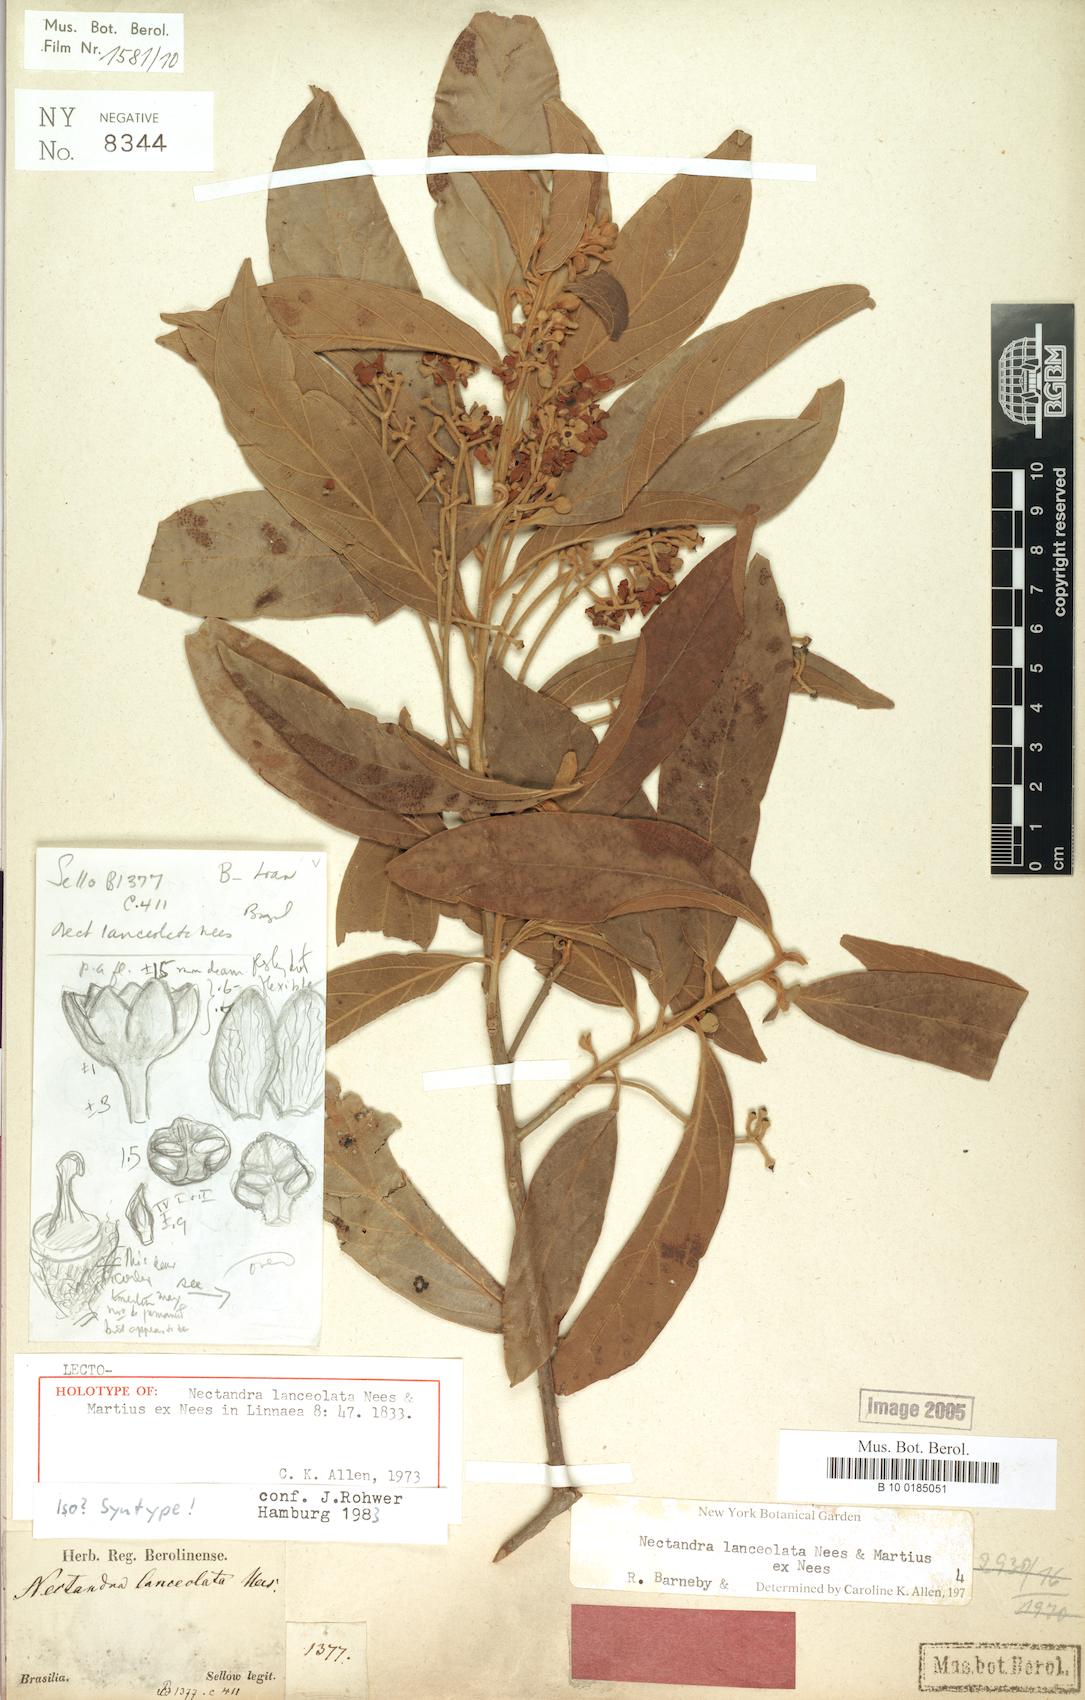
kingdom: Plantae
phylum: Tracheophyta
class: Magnoliopsida
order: Laurales
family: Lauraceae
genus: Nectandra
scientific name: Nectandra lanceolata
